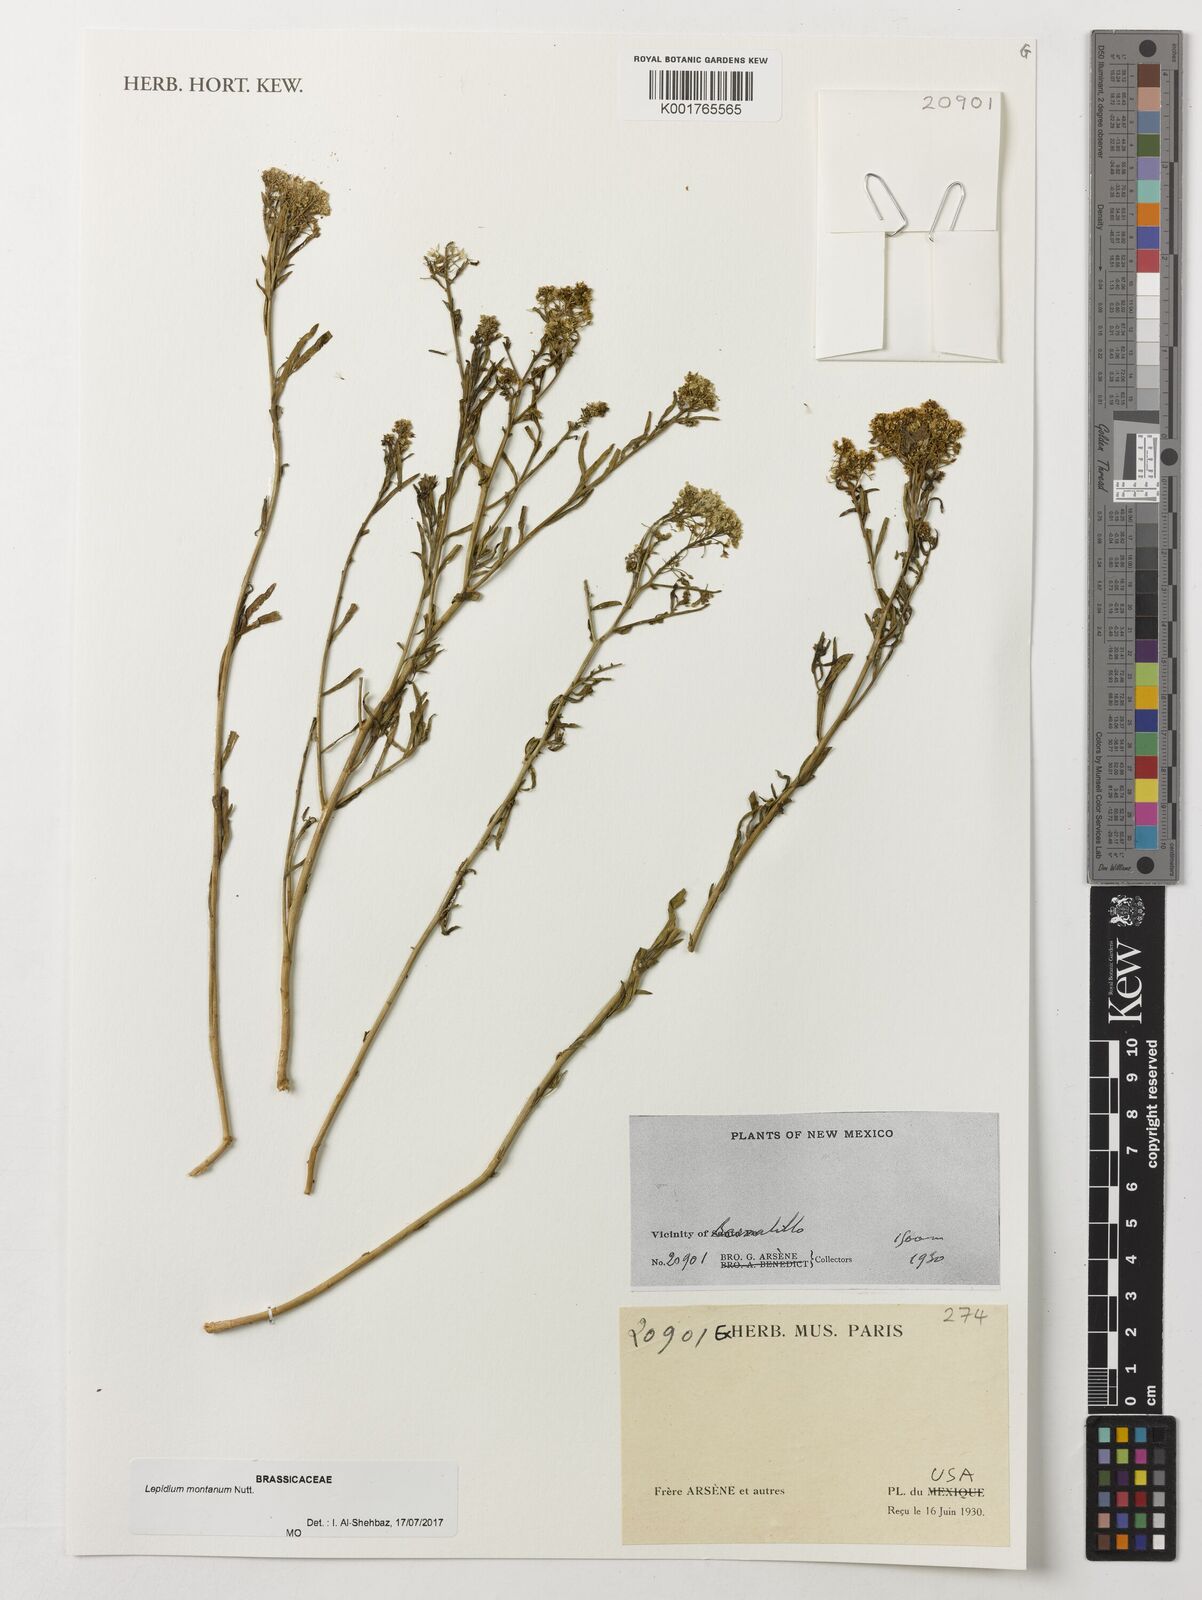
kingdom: Plantae
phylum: Tracheophyta
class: Magnoliopsida
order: Brassicales
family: Brassicaceae
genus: Lepidium
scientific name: Lepidium montanum
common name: Mountain pepperplant
